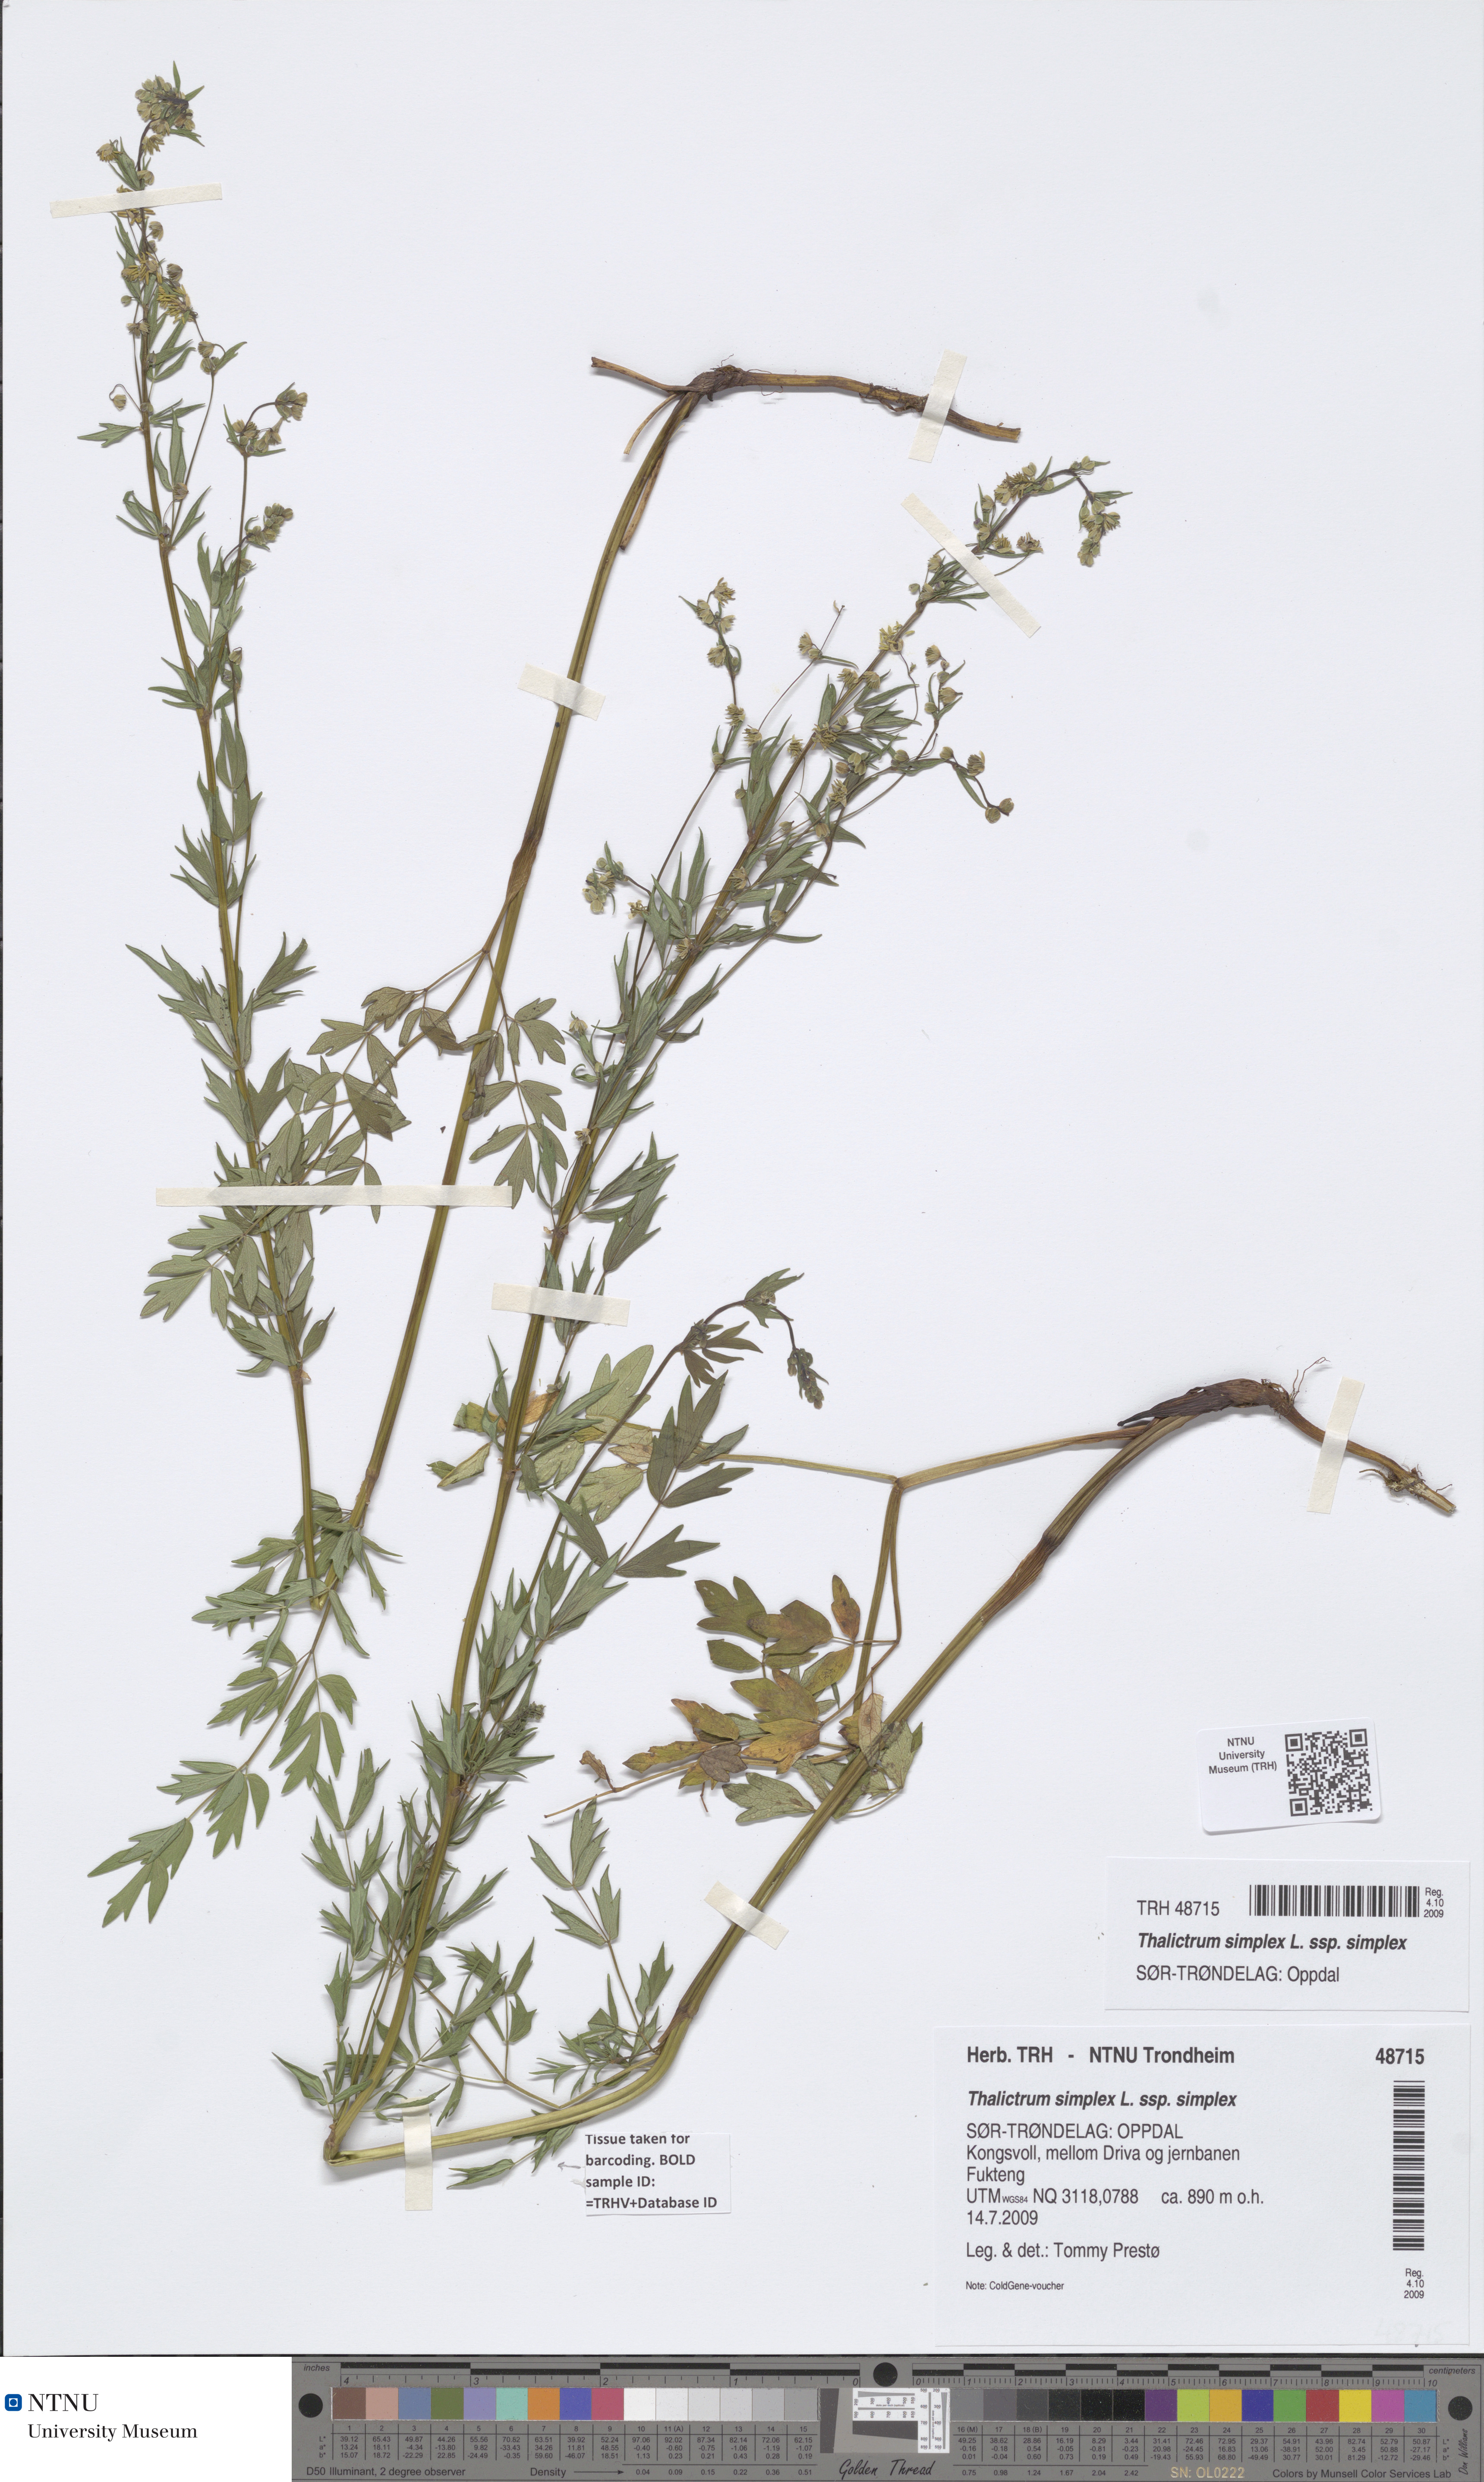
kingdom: Plantae
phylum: Tracheophyta
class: Magnoliopsida
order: Ranunculales
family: Ranunculaceae
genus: Thalictrum
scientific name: Thalictrum simplex
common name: Small meadow-rue
